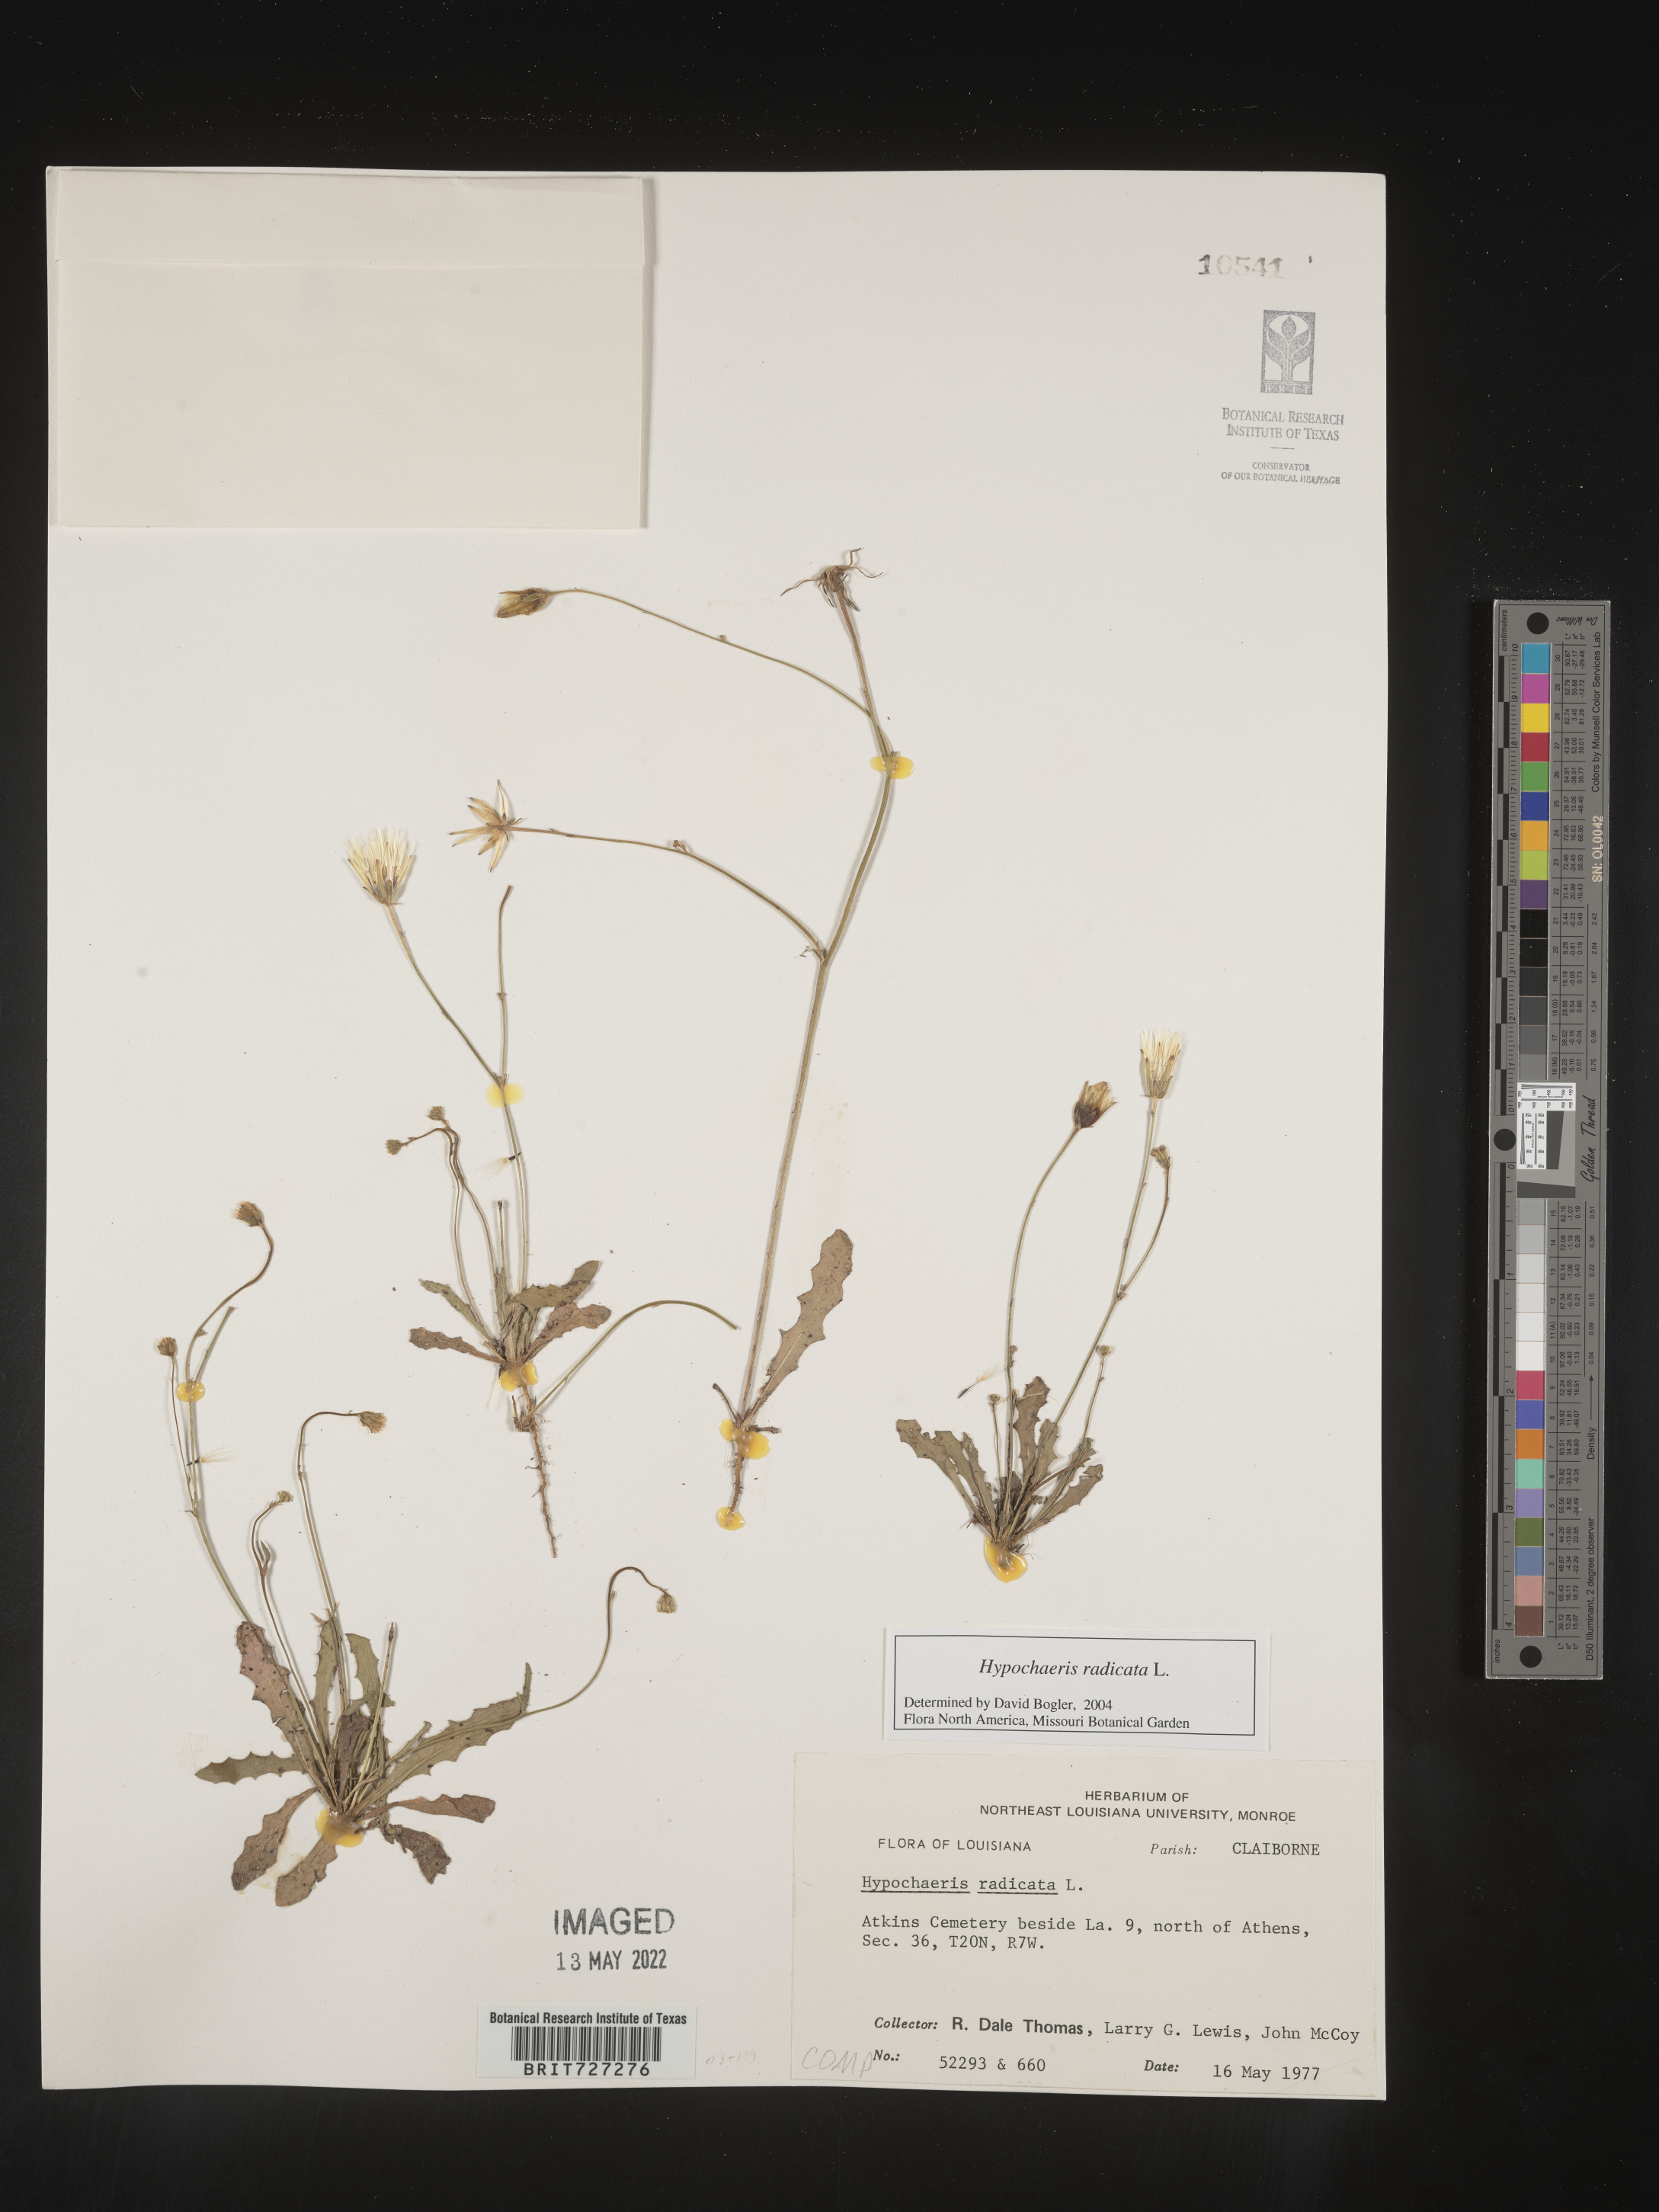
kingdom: Plantae
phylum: Tracheophyta
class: Magnoliopsida
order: Asterales
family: Asteraceae
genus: Hypochaeris
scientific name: Hypochaeris radicata
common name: Flatweed
